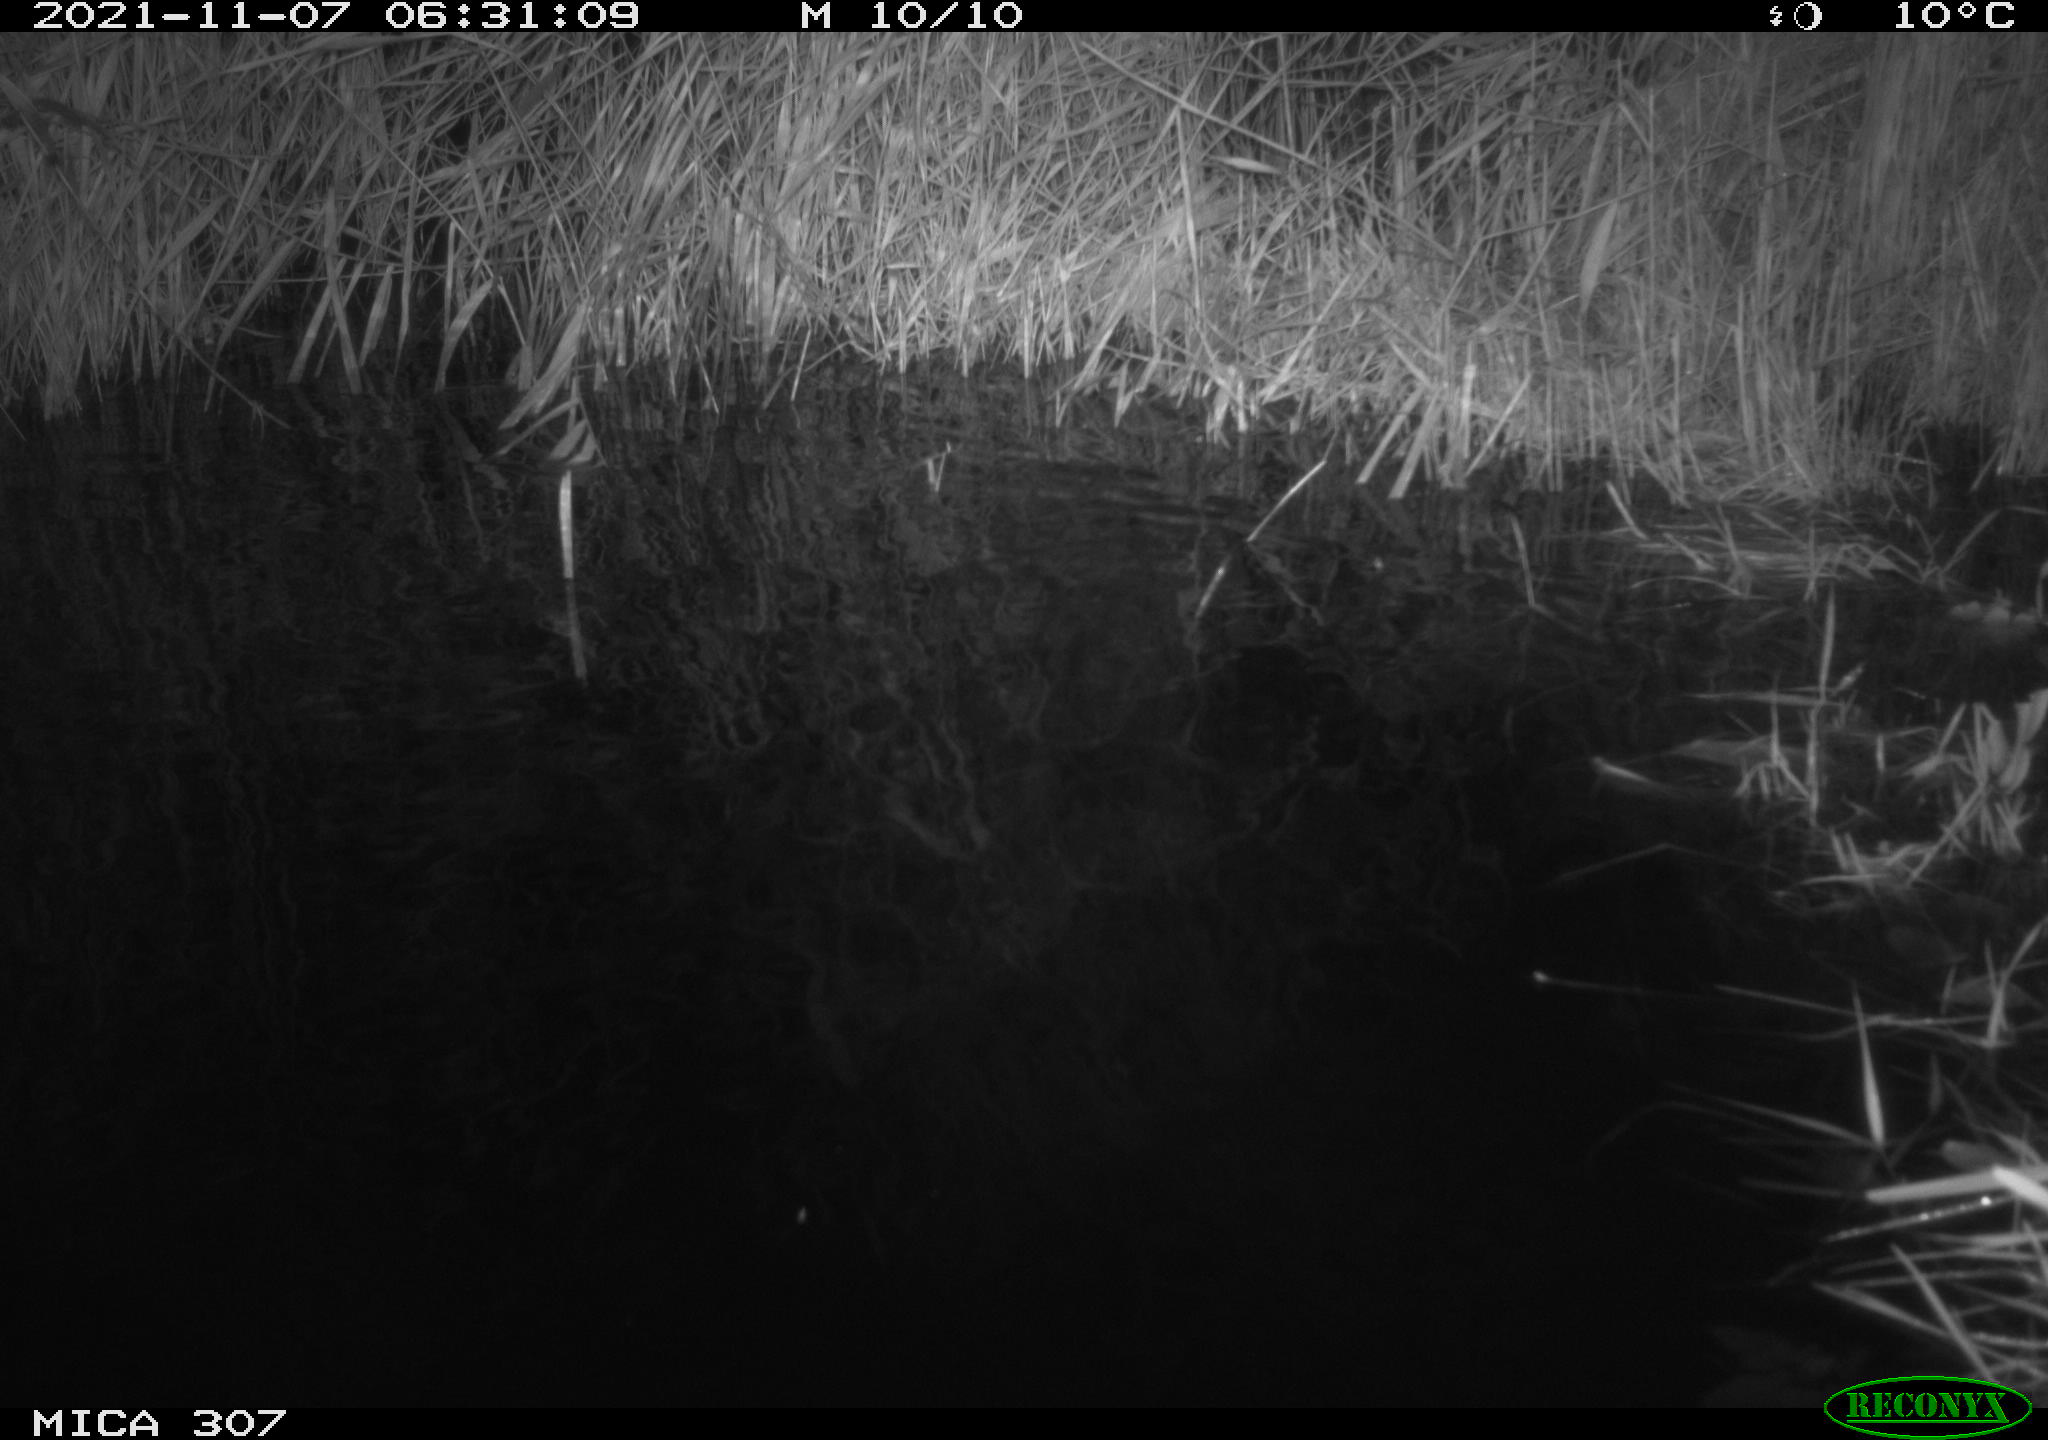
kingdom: Animalia
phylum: Chordata
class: Mammalia
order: Rodentia
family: Muridae
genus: Rattus
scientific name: Rattus norvegicus
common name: Brown rat
